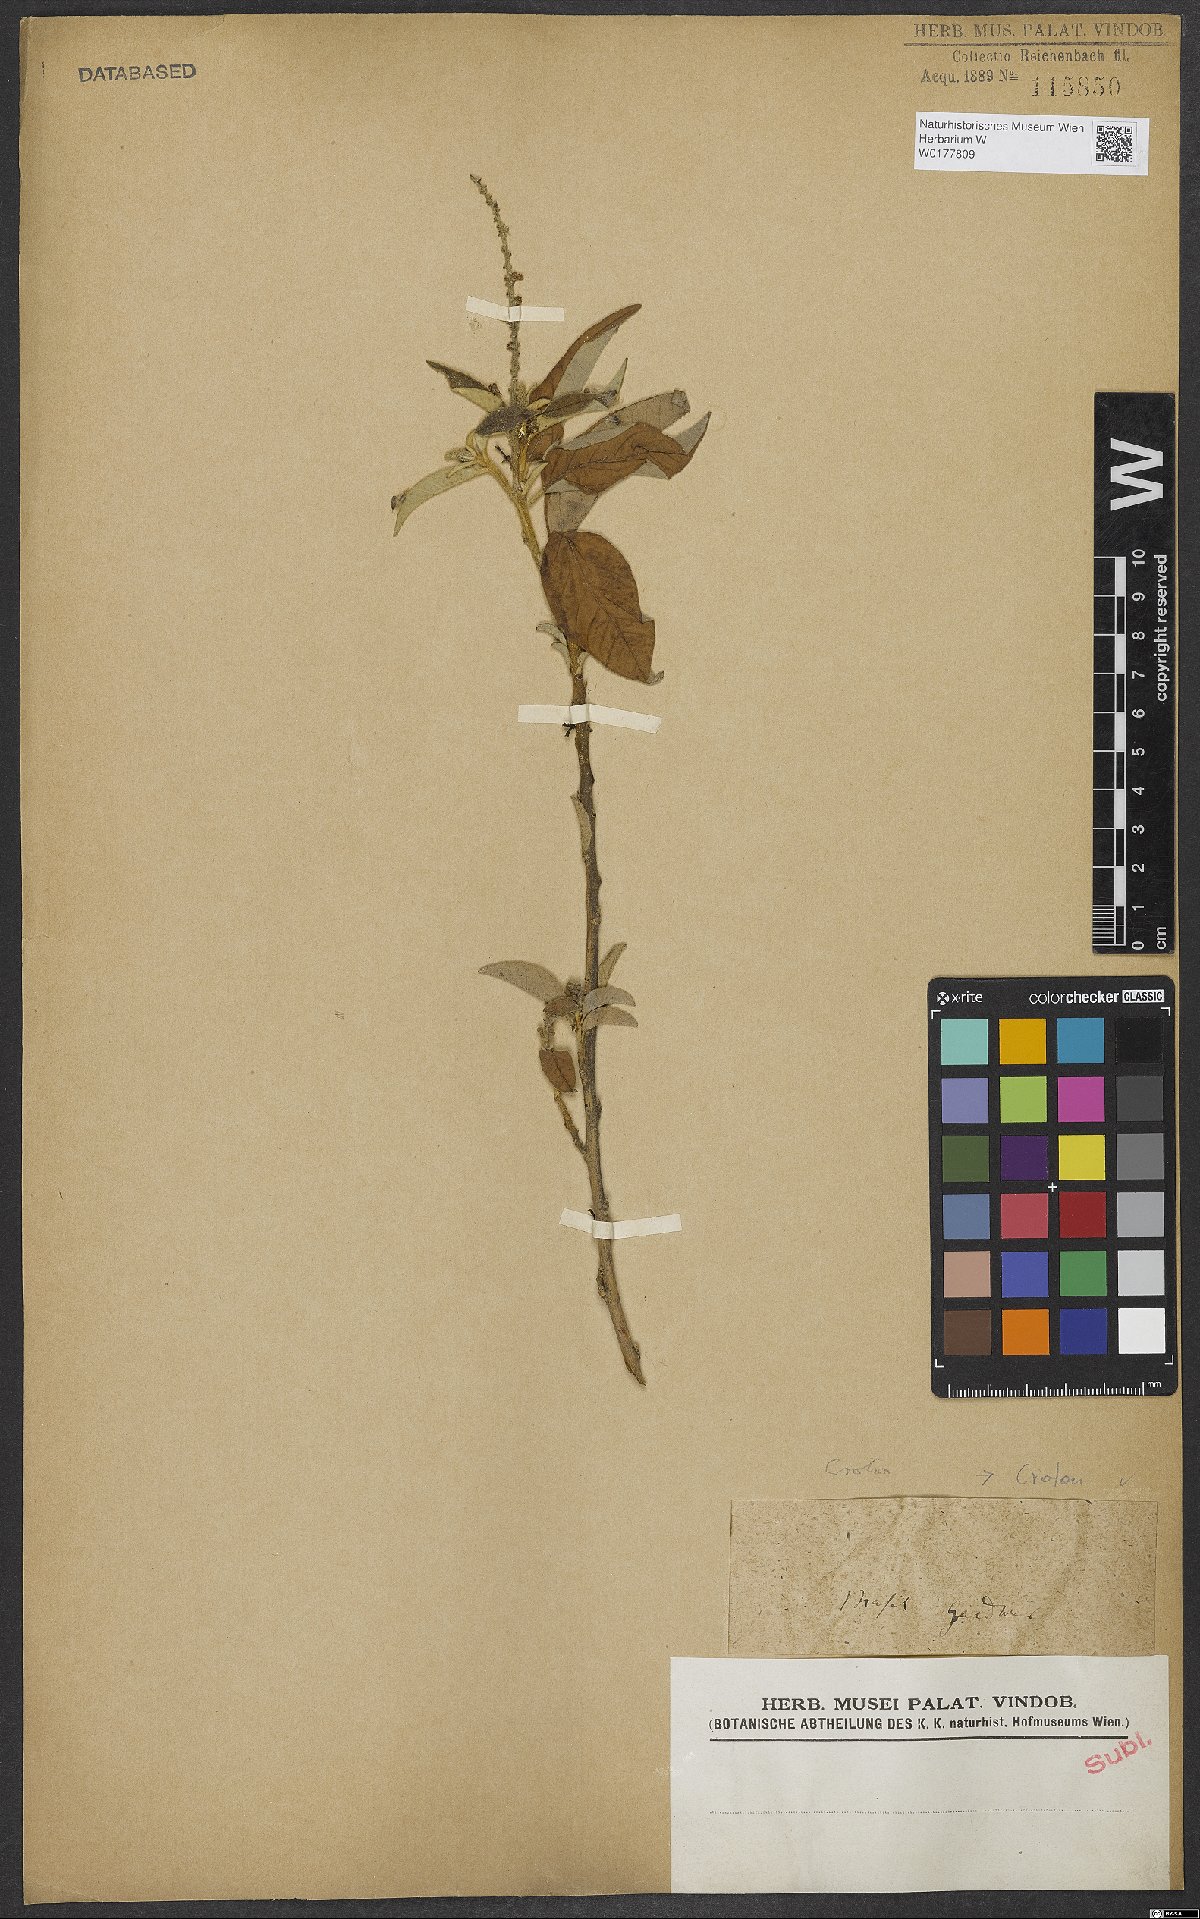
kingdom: Plantae
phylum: Tracheophyta
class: Magnoliopsida
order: Malpighiales
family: Euphorbiaceae
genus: Croton
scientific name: Croton
